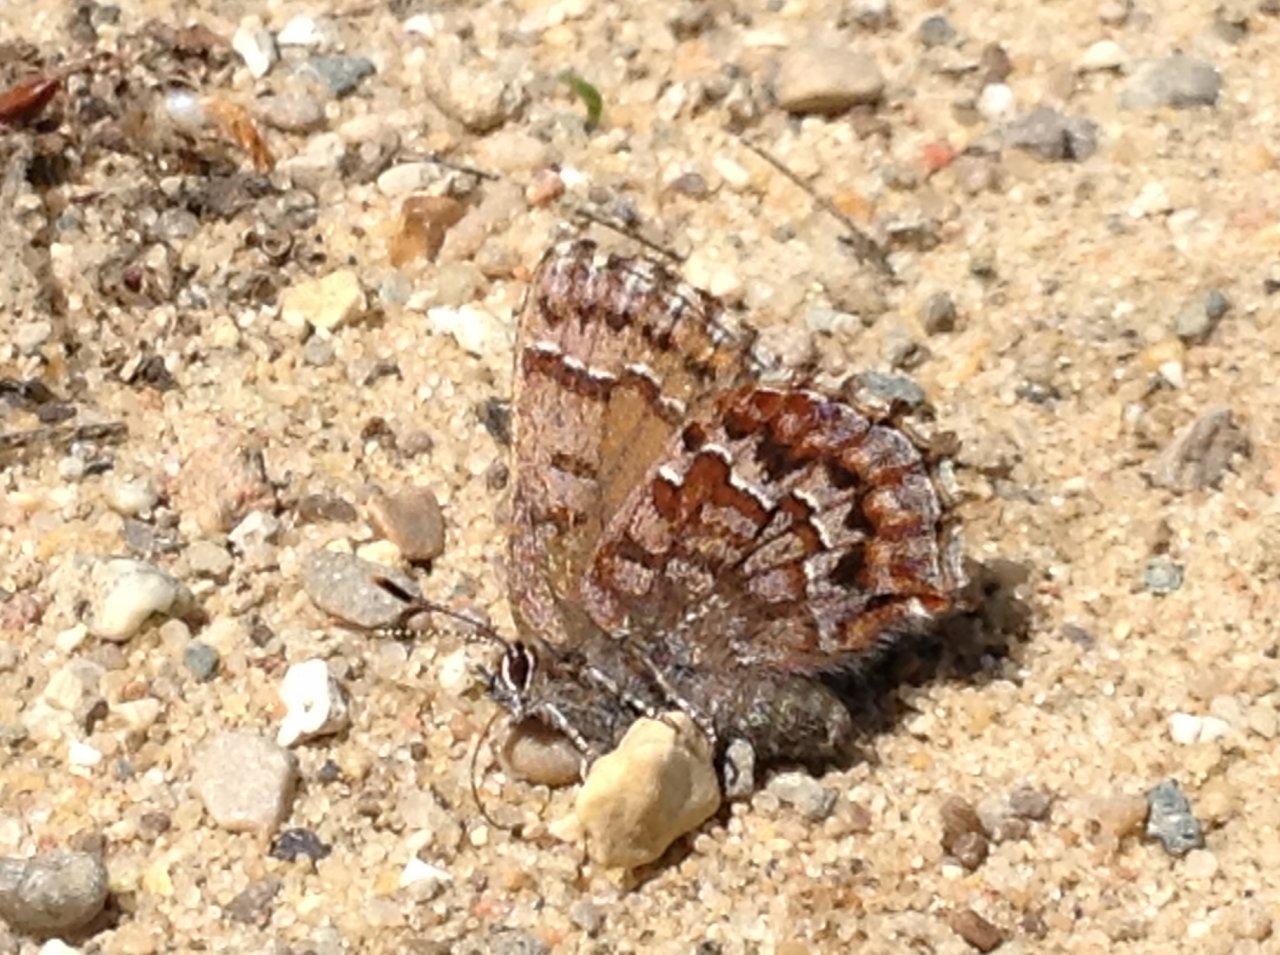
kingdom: Animalia
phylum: Arthropoda
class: Insecta
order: Lepidoptera
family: Lycaenidae
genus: Incisalia
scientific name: Incisalia niphon
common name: Eastern Pine Elfin
